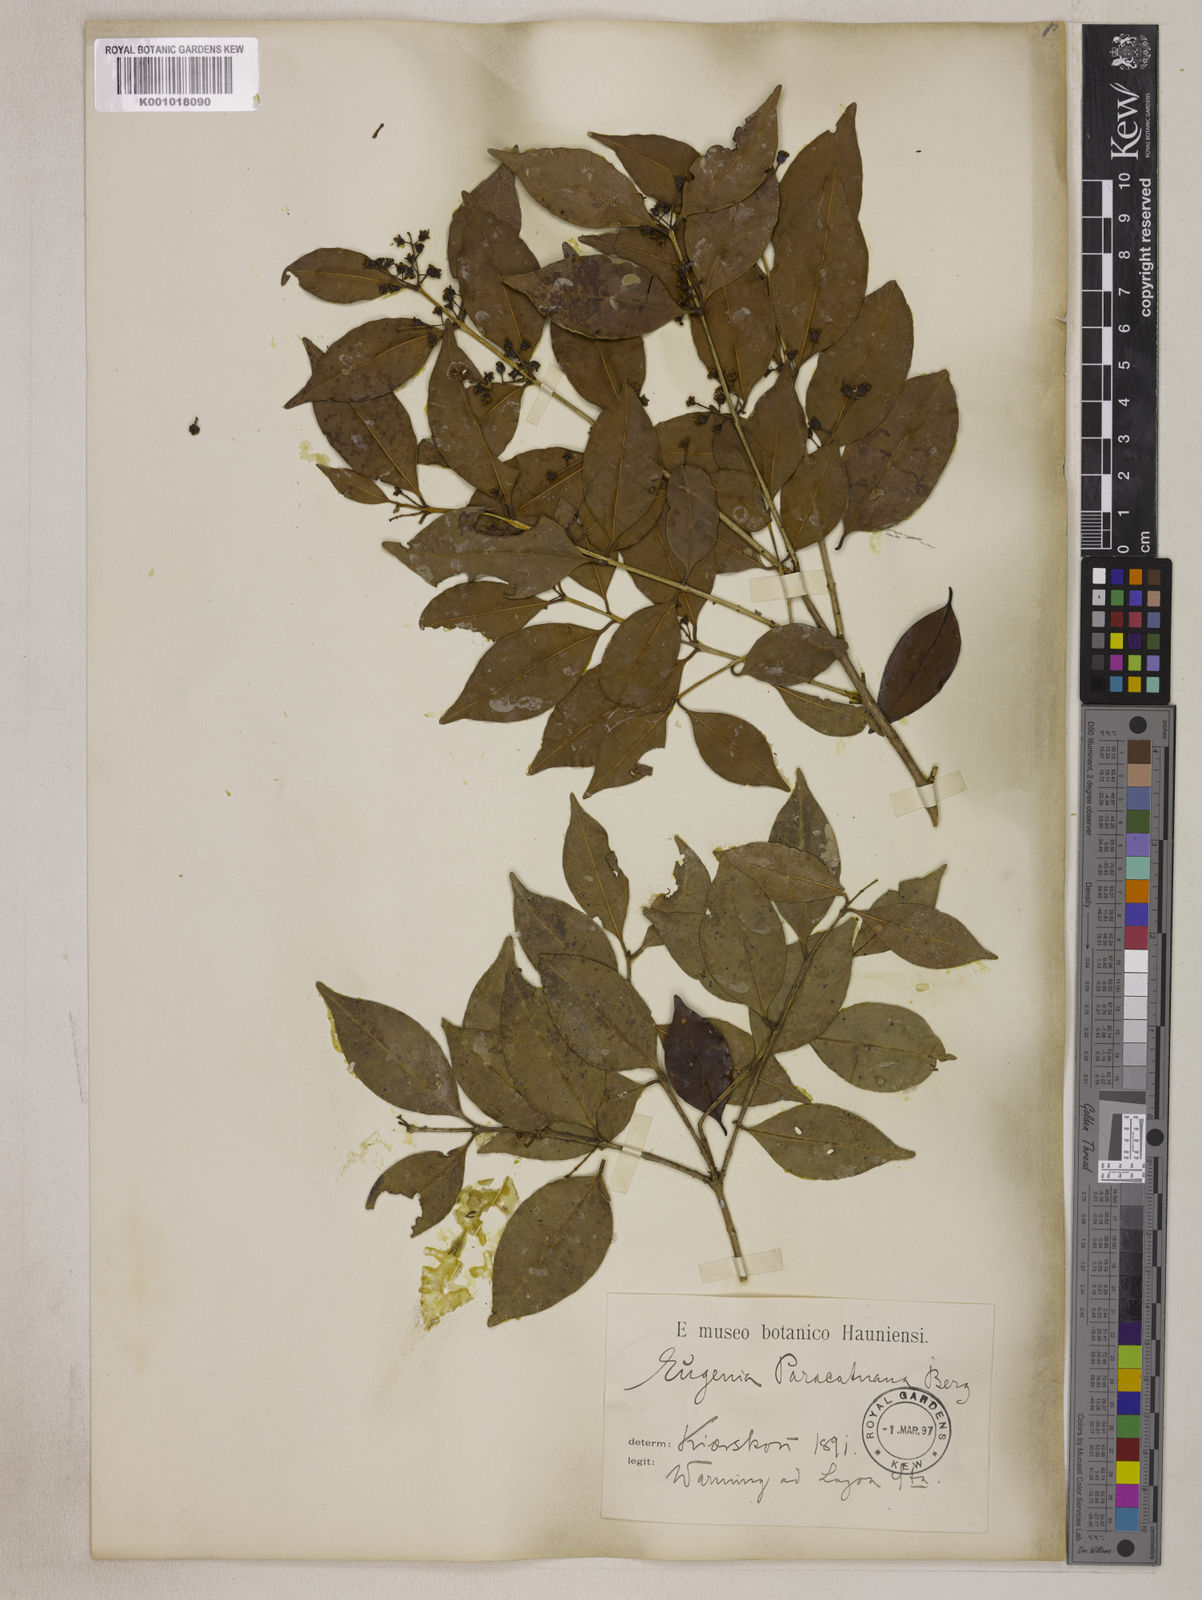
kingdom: Plantae
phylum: Tracheophyta
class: Magnoliopsida
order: Myrtales
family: Myrtaceae
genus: Eugenia
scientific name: Eugenia modesta
